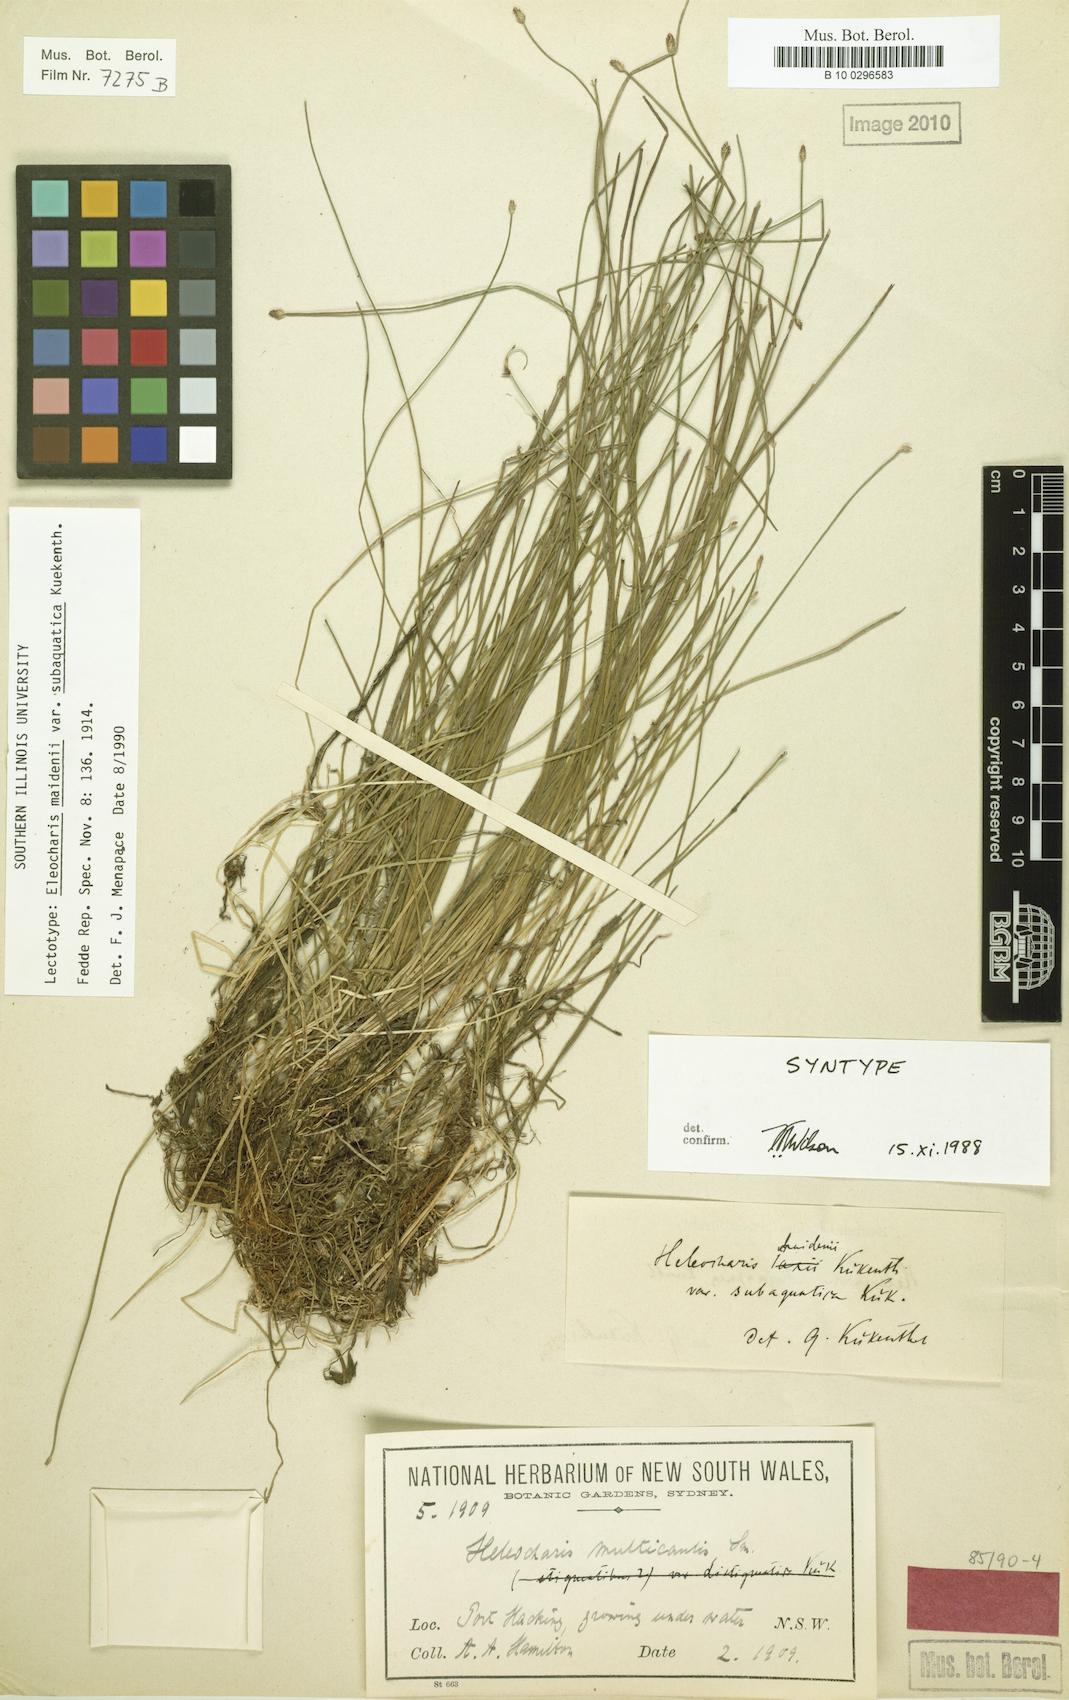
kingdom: Plantae
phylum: Tracheophyta
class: Liliopsida
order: Poales
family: Cyperaceae
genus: Eleocharis
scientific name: Eleocharis maidenii
